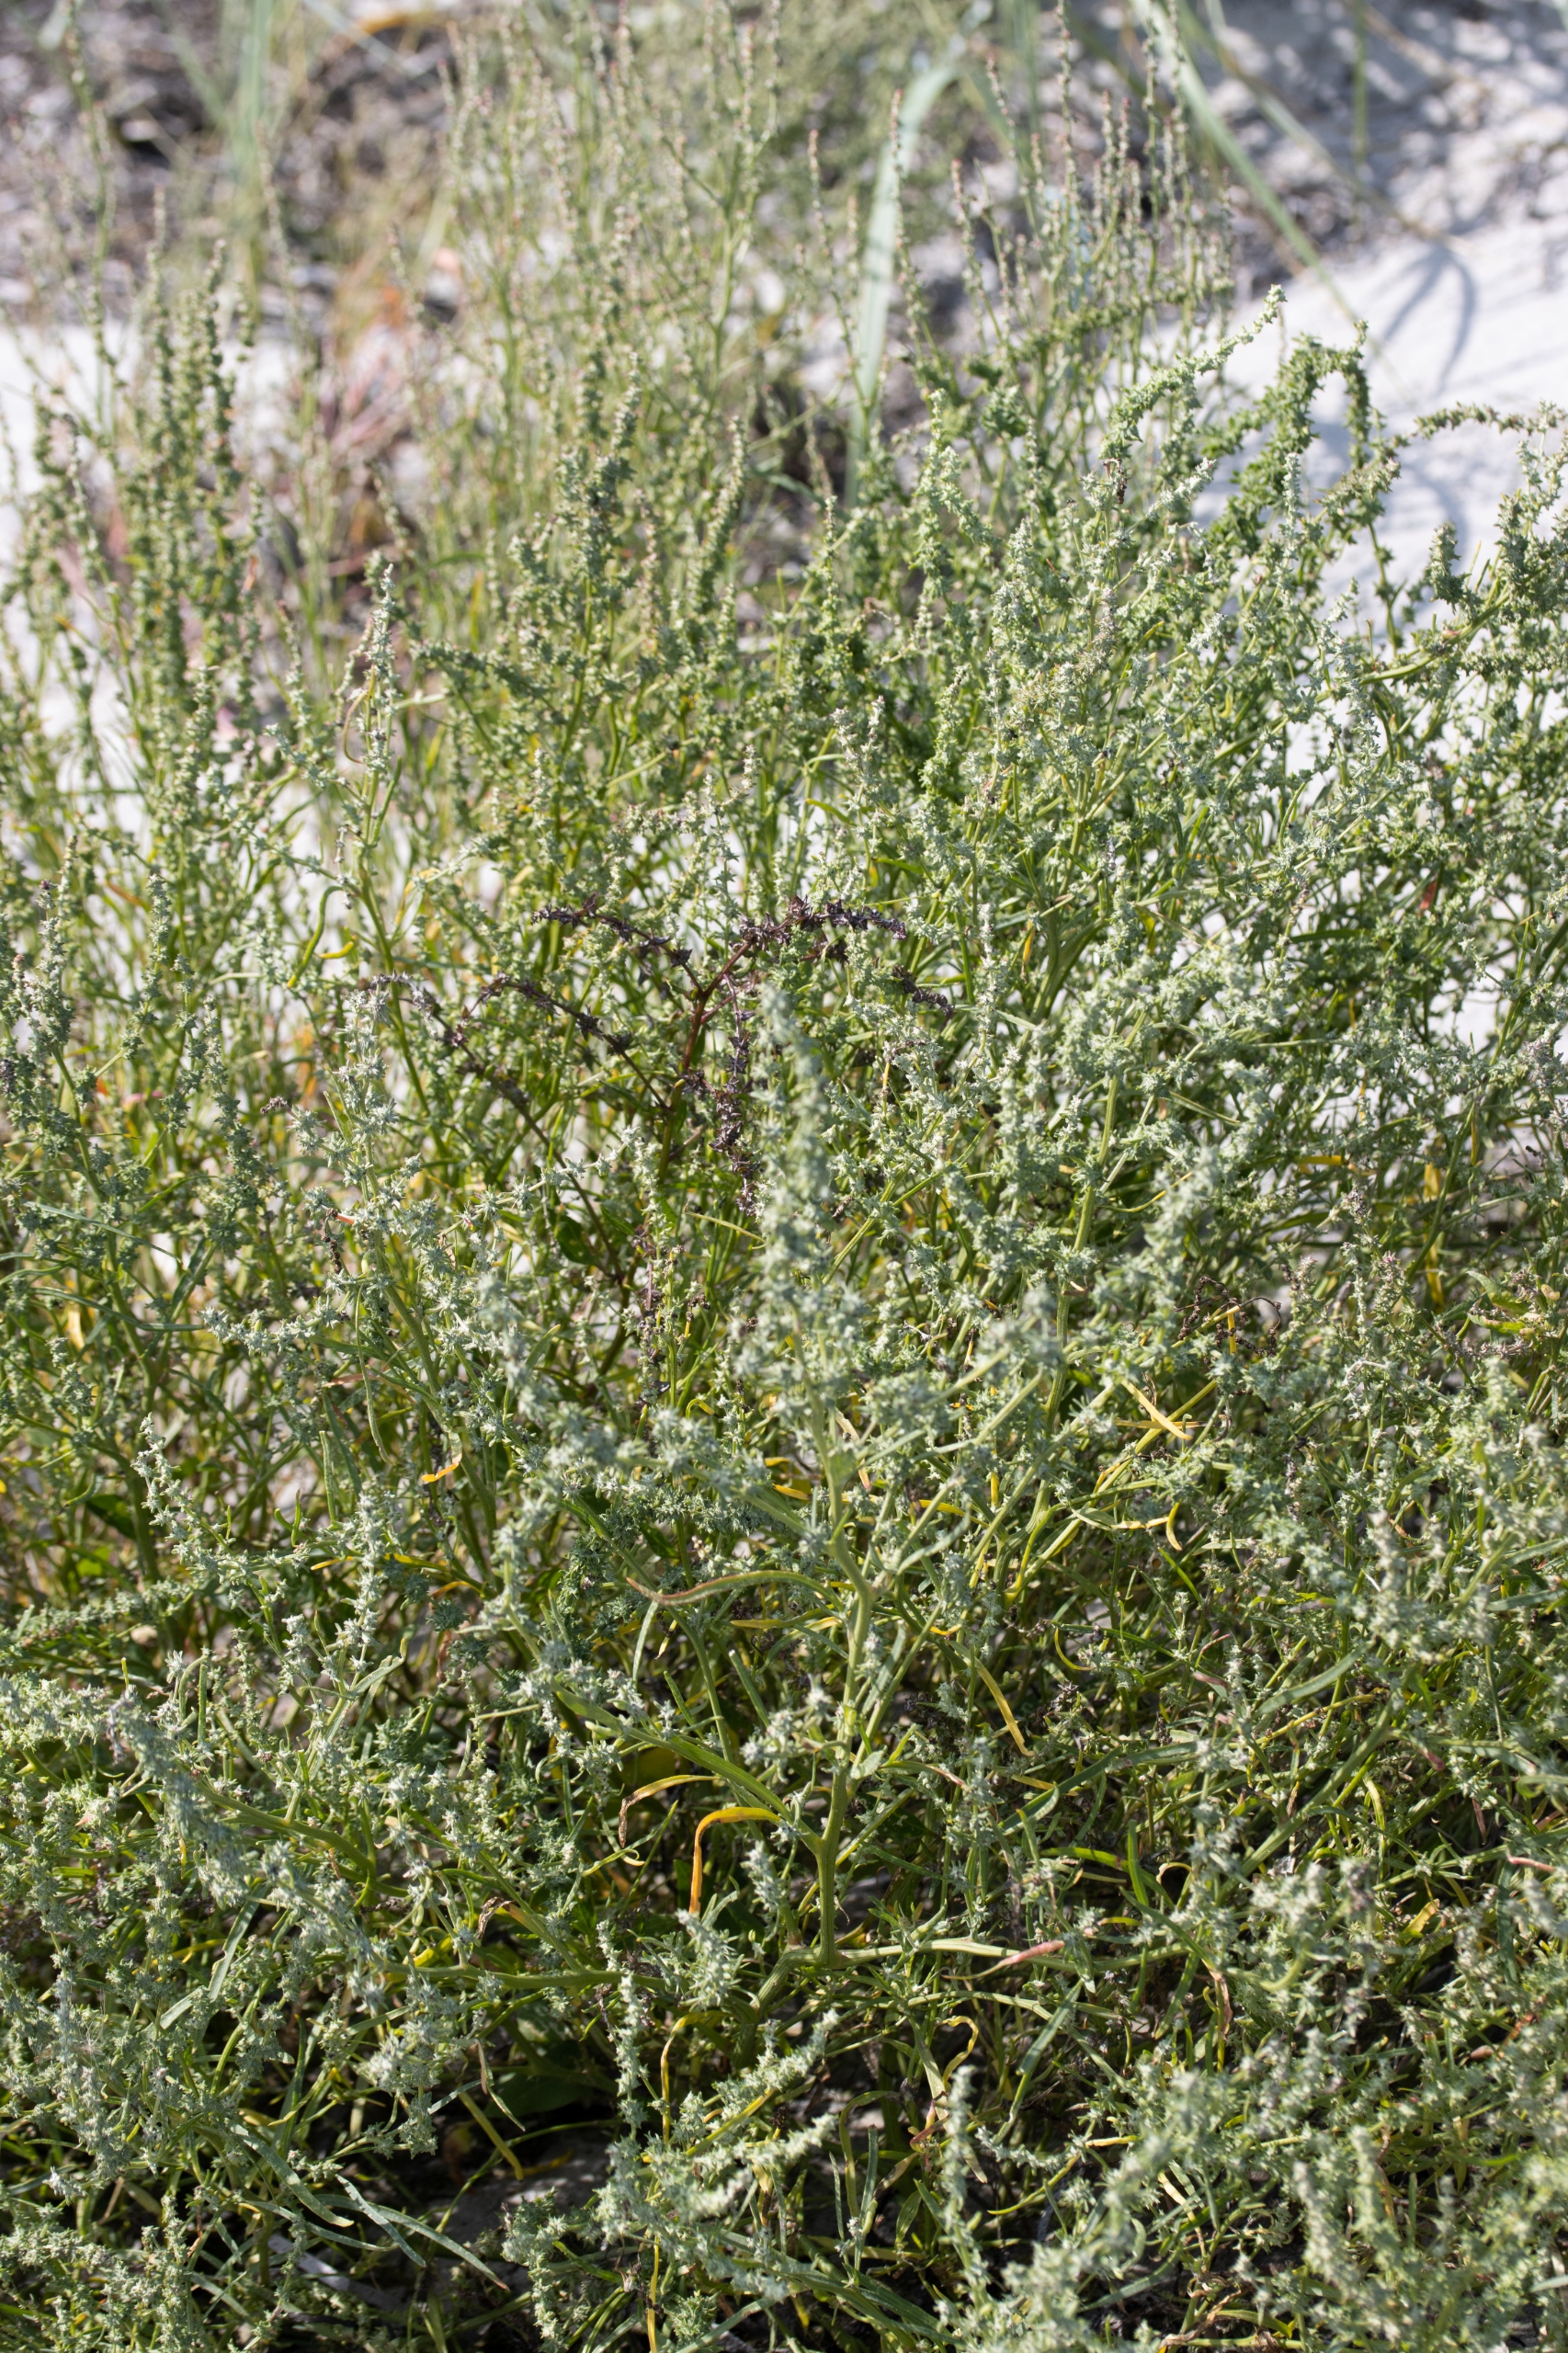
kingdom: Plantae
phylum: Tracheophyta
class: Magnoliopsida
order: Caryophyllales
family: Amaranthaceae
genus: Atriplex
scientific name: Atriplex littoralis
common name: Strand-mælde
